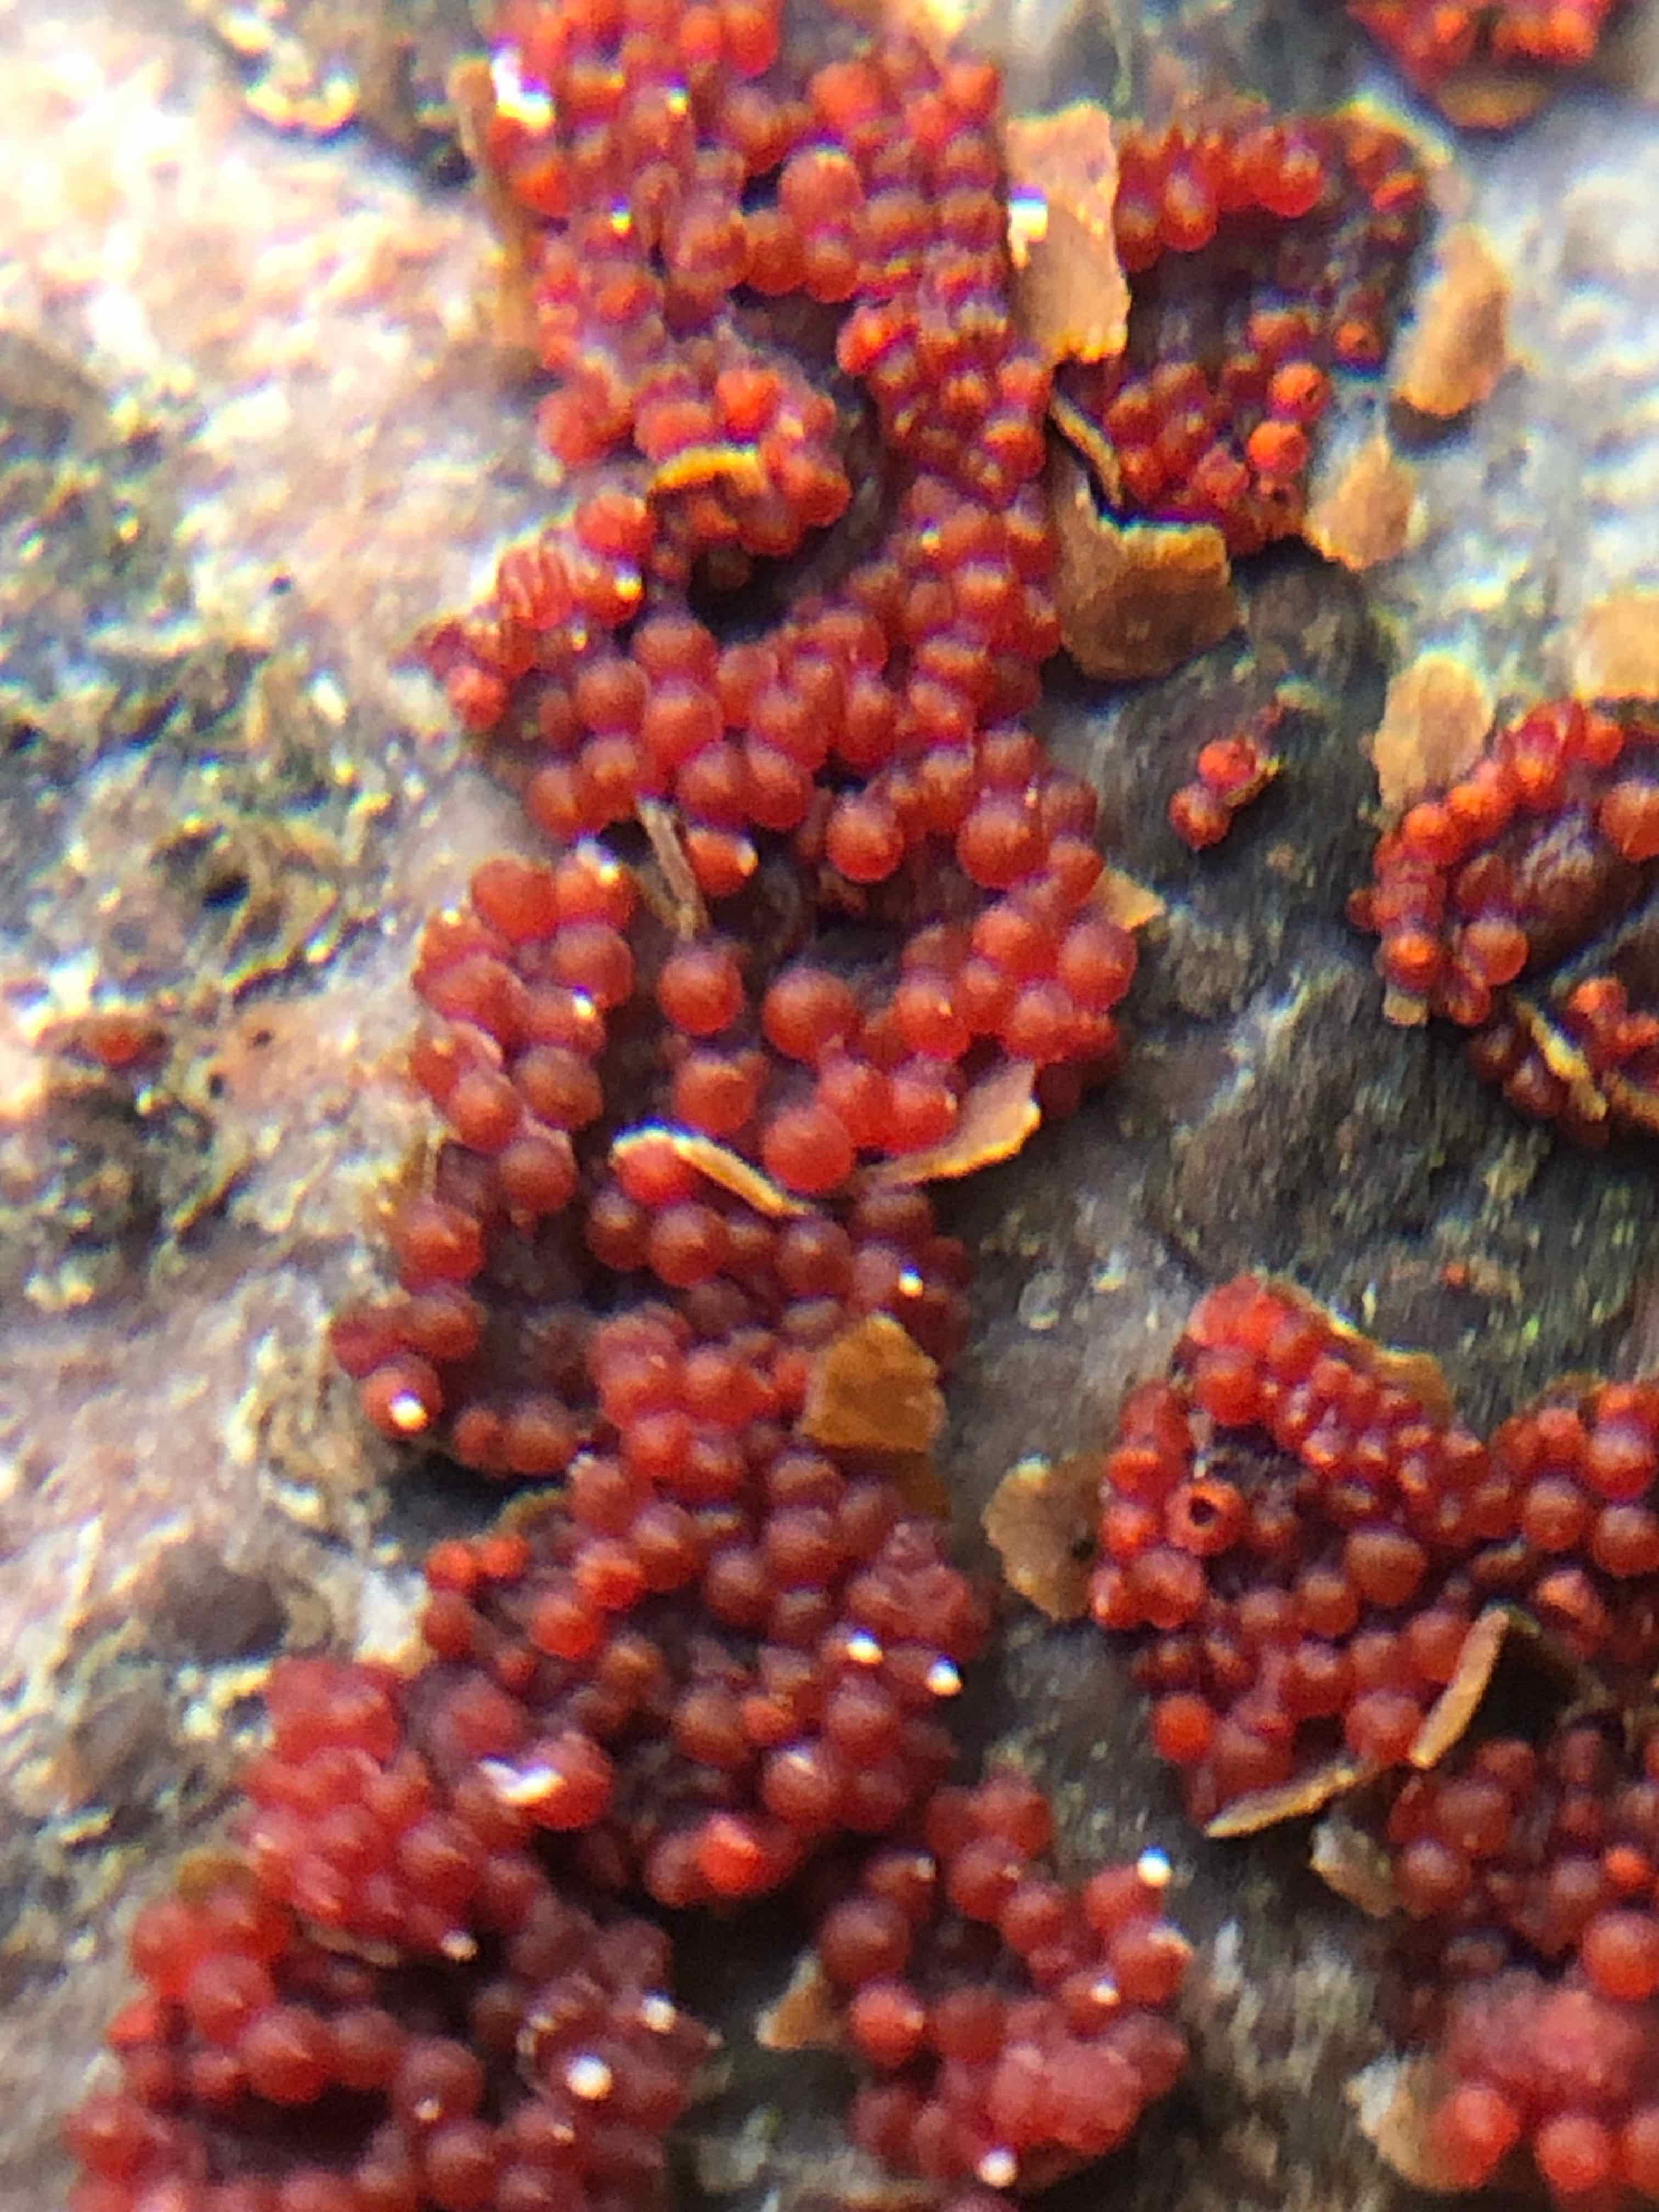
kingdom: Fungi
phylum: Ascomycota
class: Sordariomycetes
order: Hypocreales
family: Nectriaceae
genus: Neonectria
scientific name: Neonectria coccinea
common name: bøgebark-cinnobersvamp
